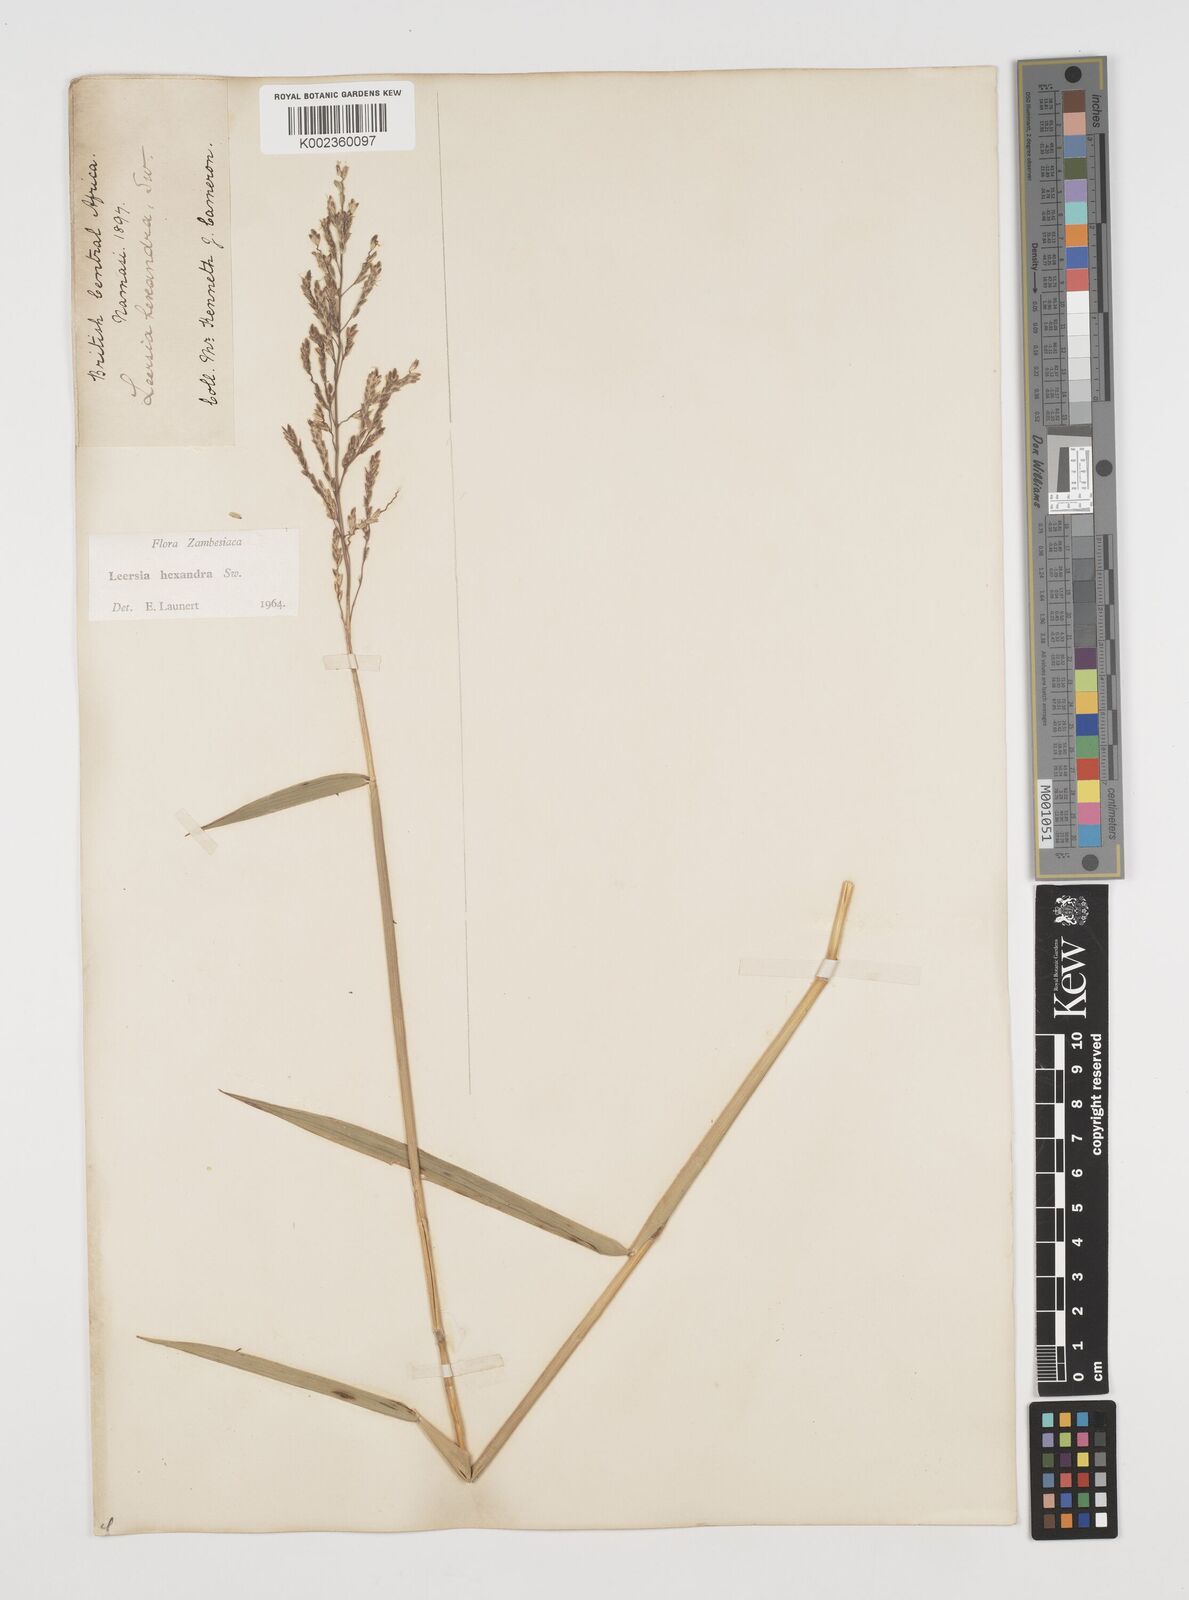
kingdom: Plantae
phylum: Tracheophyta
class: Liliopsida
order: Poales
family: Poaceae
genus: Leersia
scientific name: Leersia hexandra
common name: Southern cut grass
